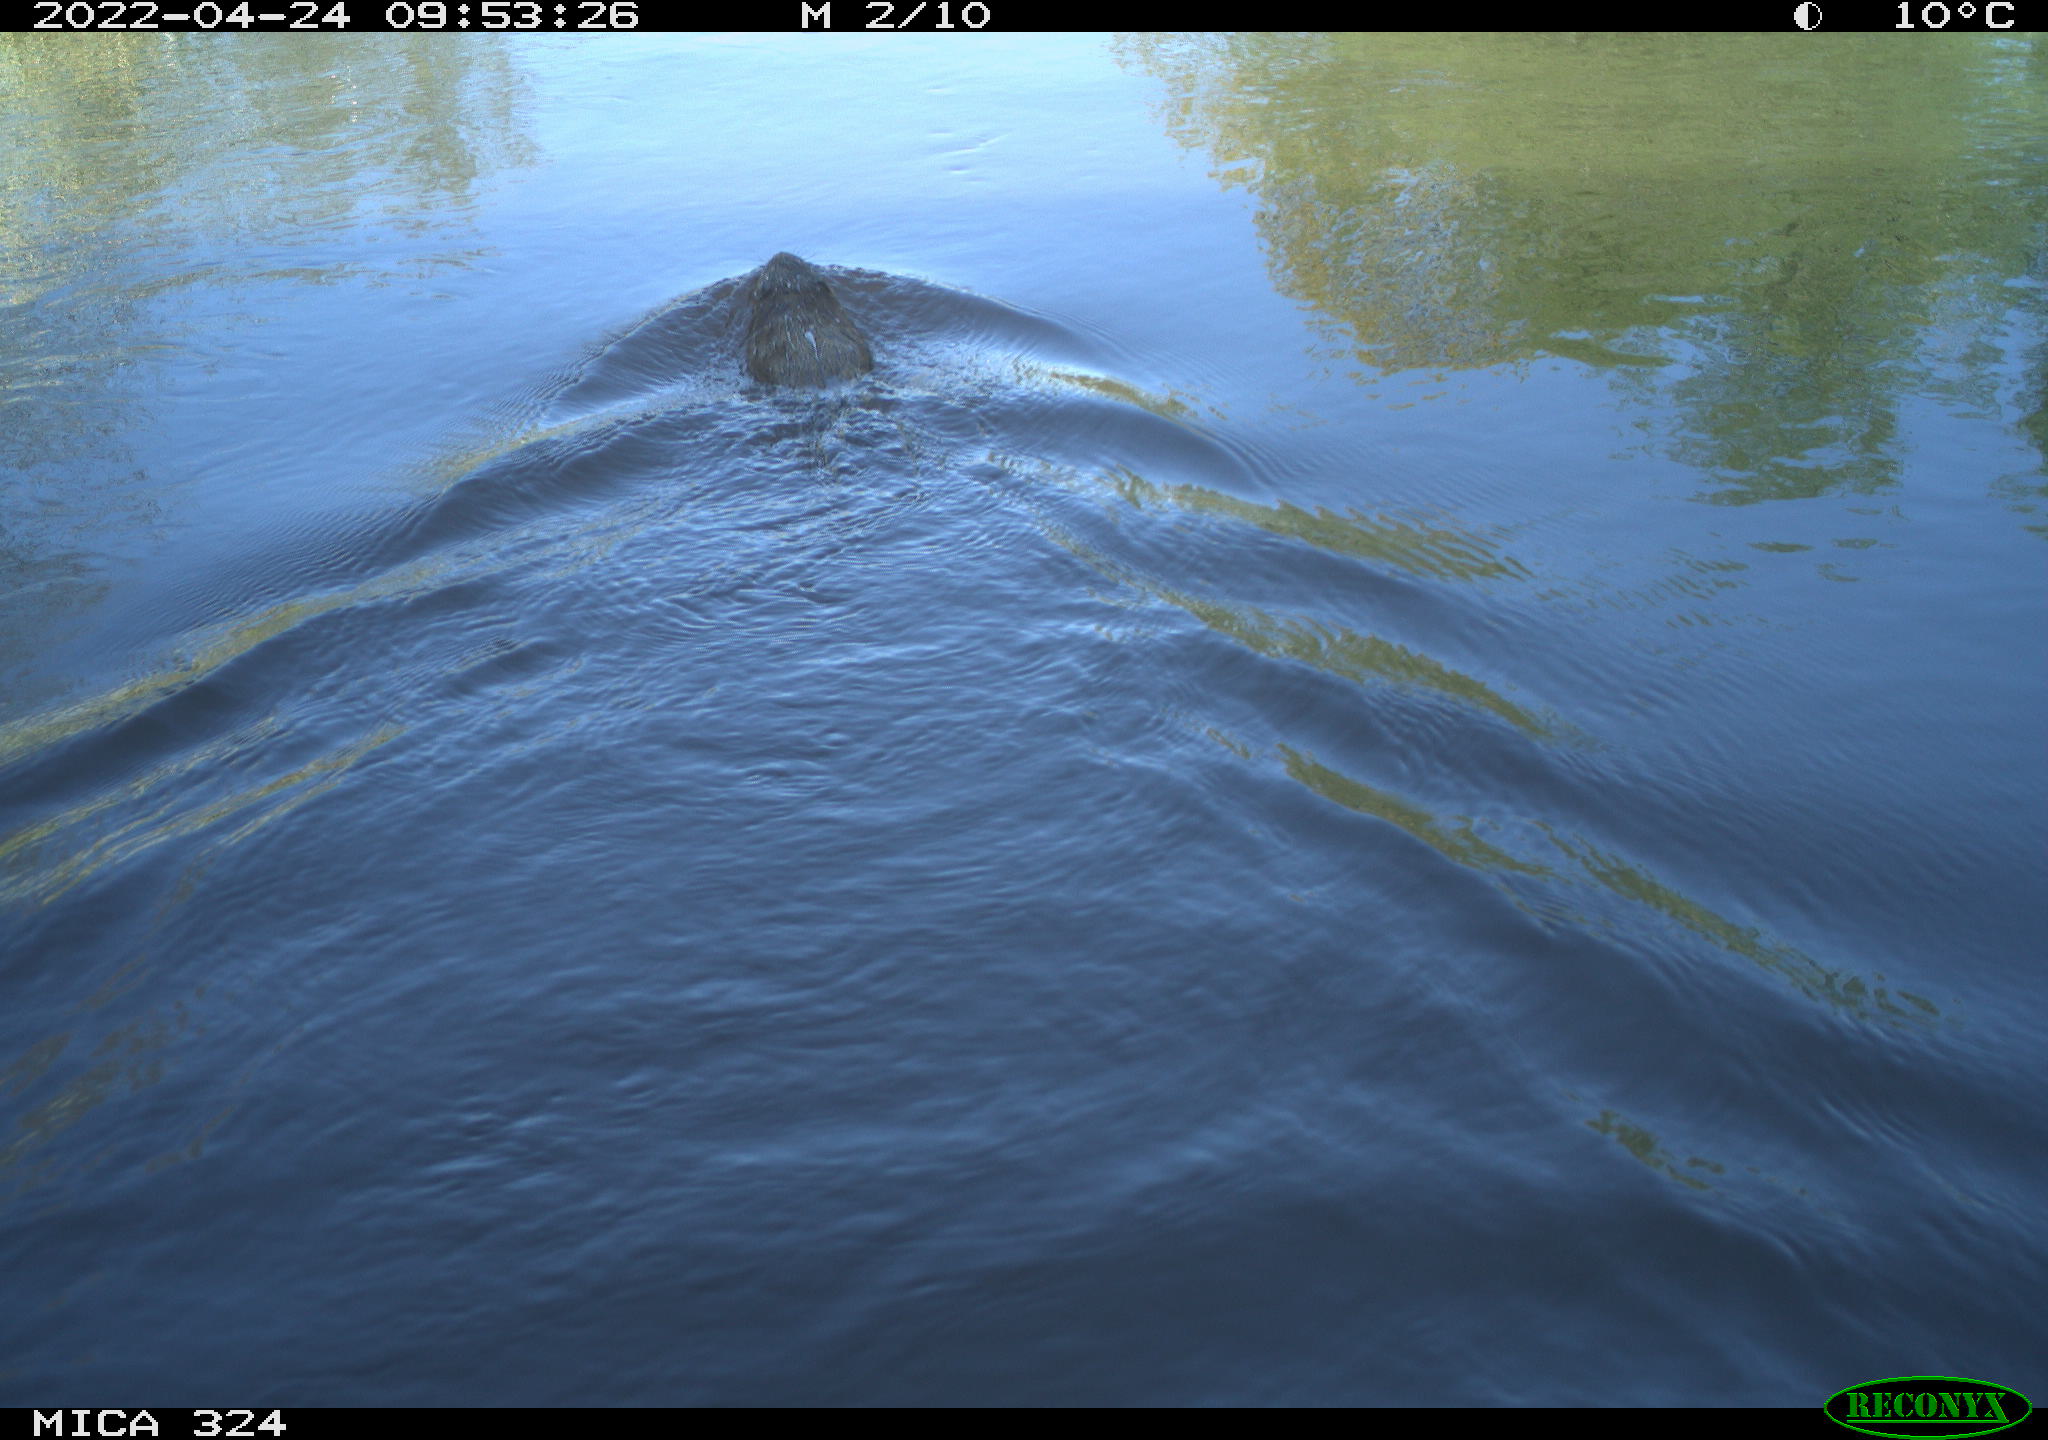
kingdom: Animalia
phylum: Chordata
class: Mammalia
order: Rodentia
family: Cricetidae
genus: Ondatra
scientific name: Ondatra zibethicus
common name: Muskrat
